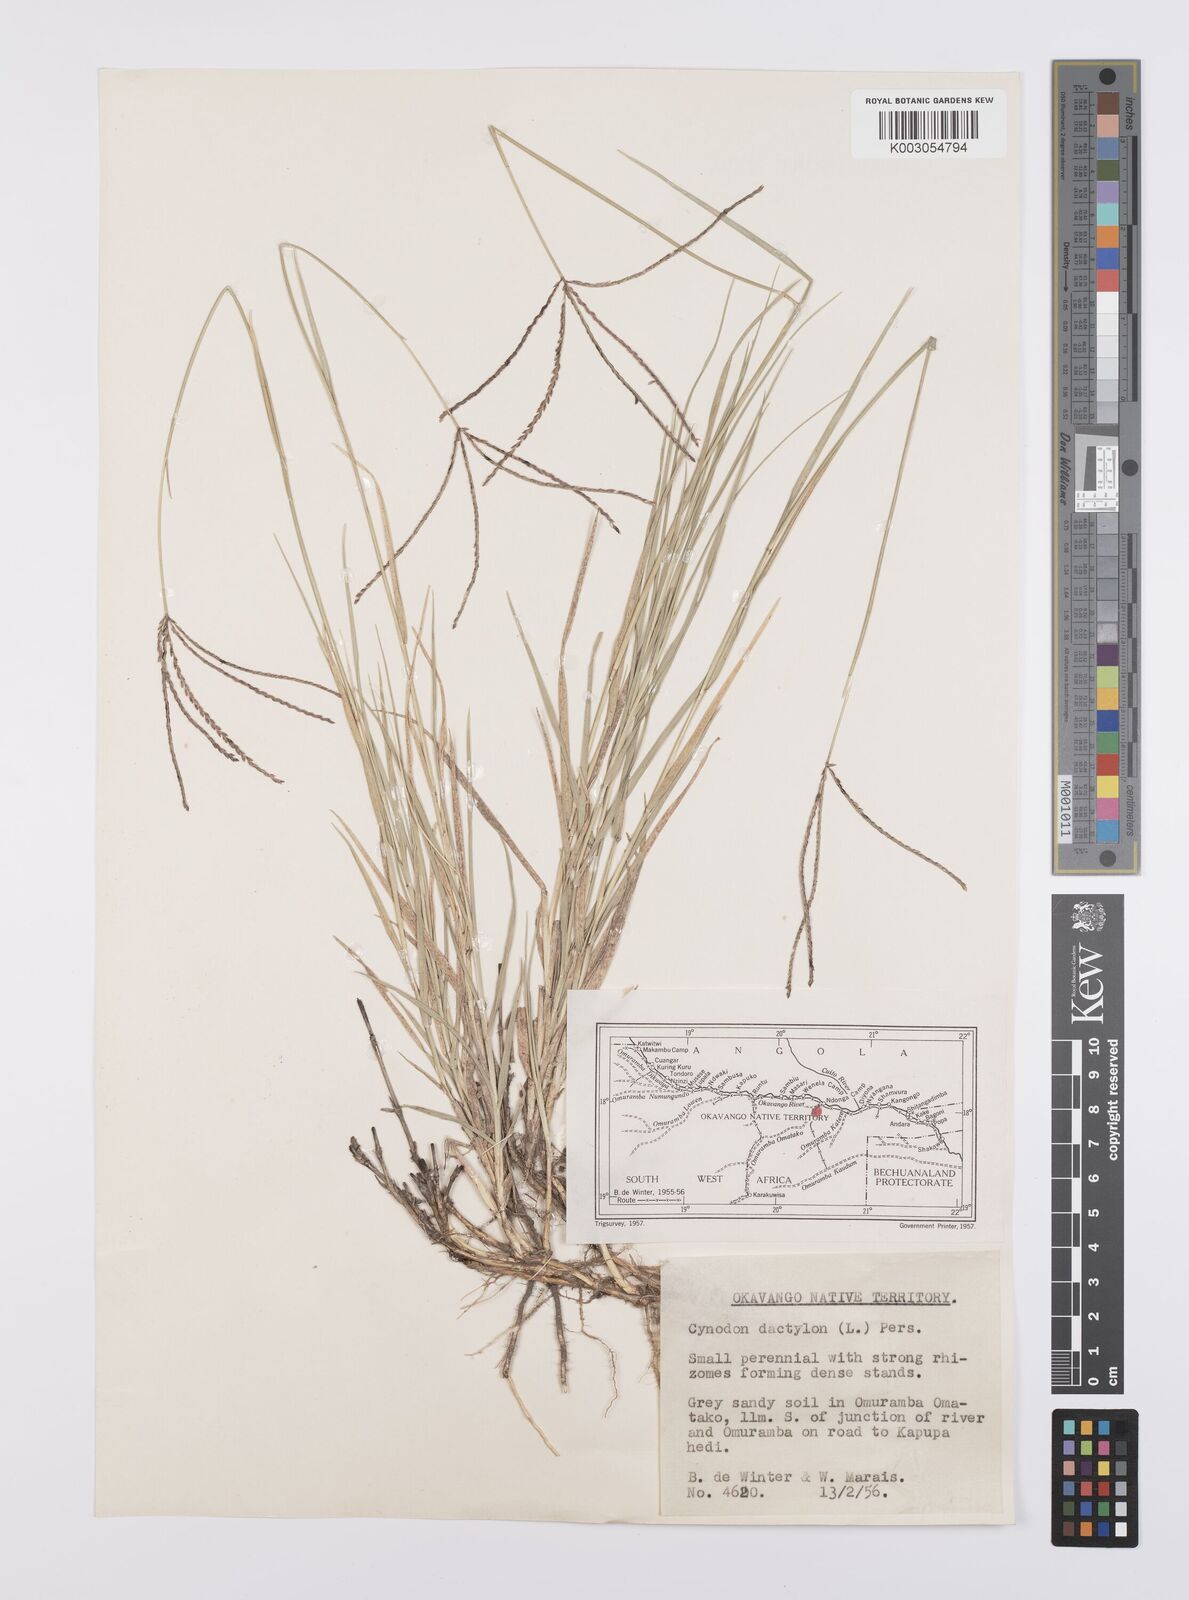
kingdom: Plantae
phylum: Tracheophyta
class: Liliopsida
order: Poales
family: Poaceae
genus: Cynodon
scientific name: Cynodon dactylon
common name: Bermuda grass
